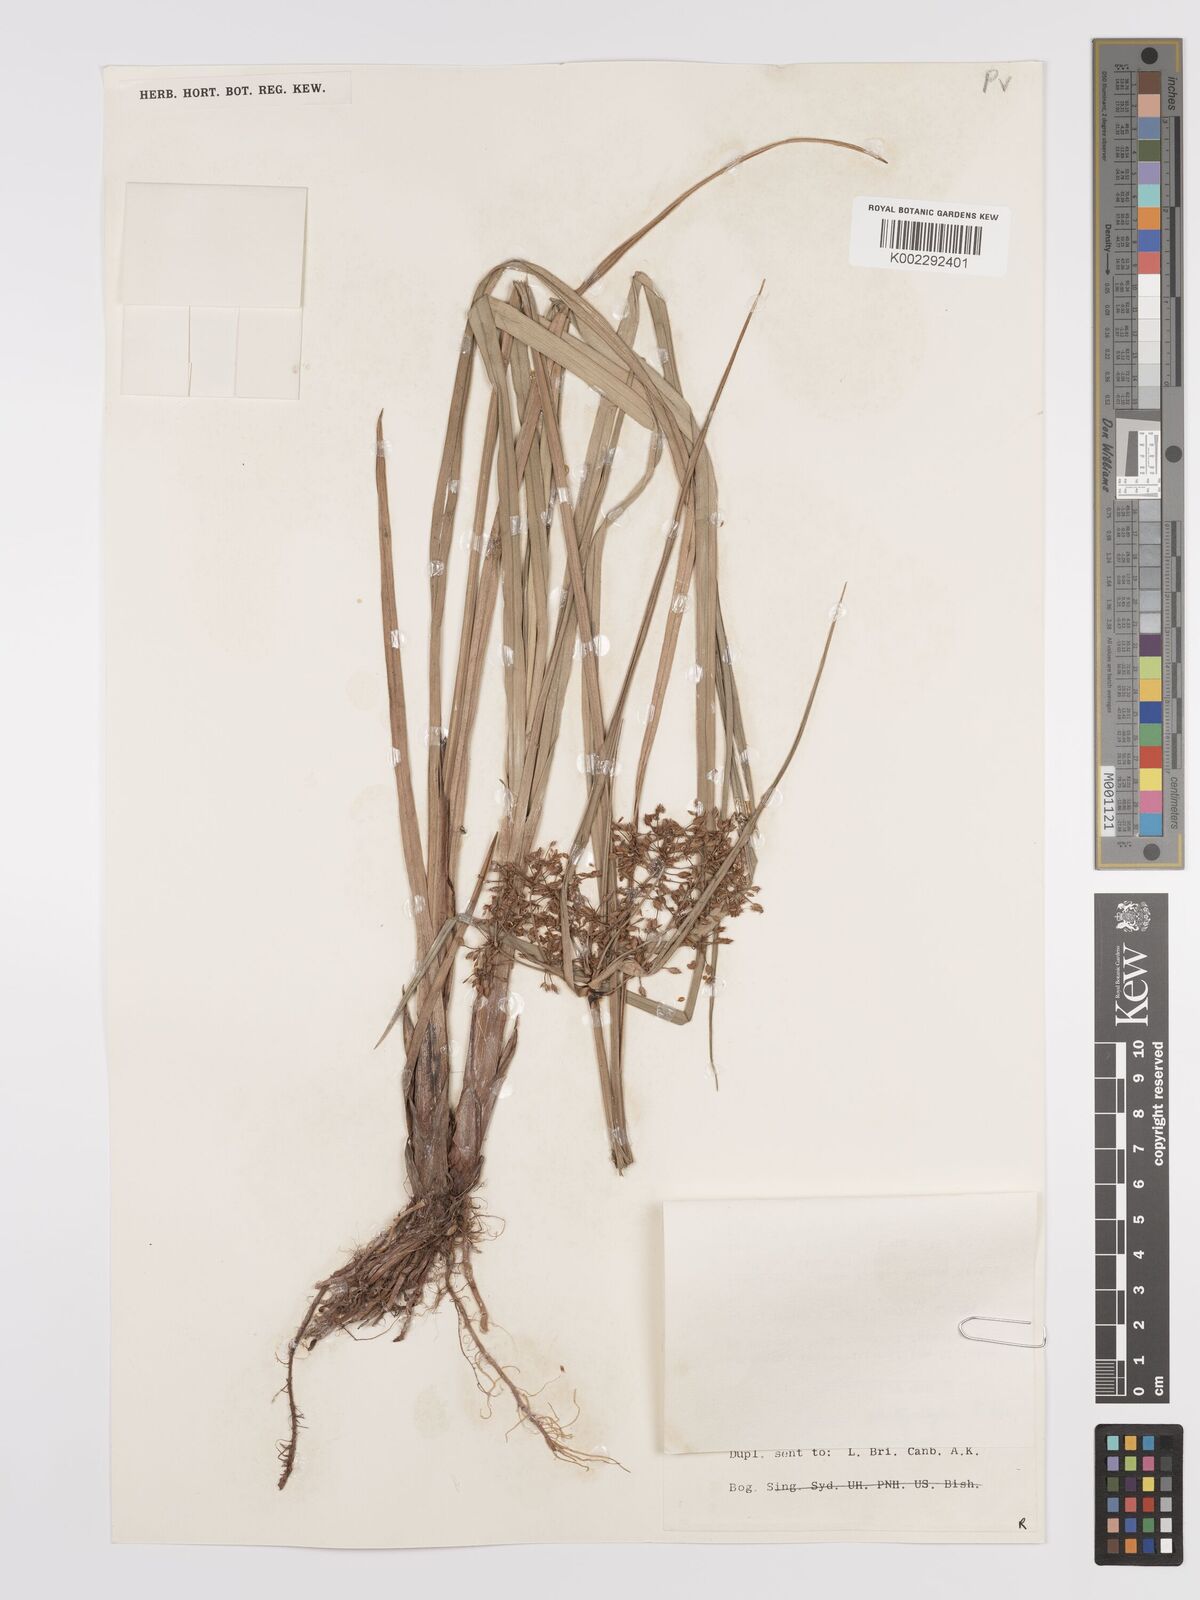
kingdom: Plantae
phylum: Tracheophyta
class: Liliopsida
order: Poales
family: Cyperaceae
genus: Cyperus
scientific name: Cyperus platystylis
